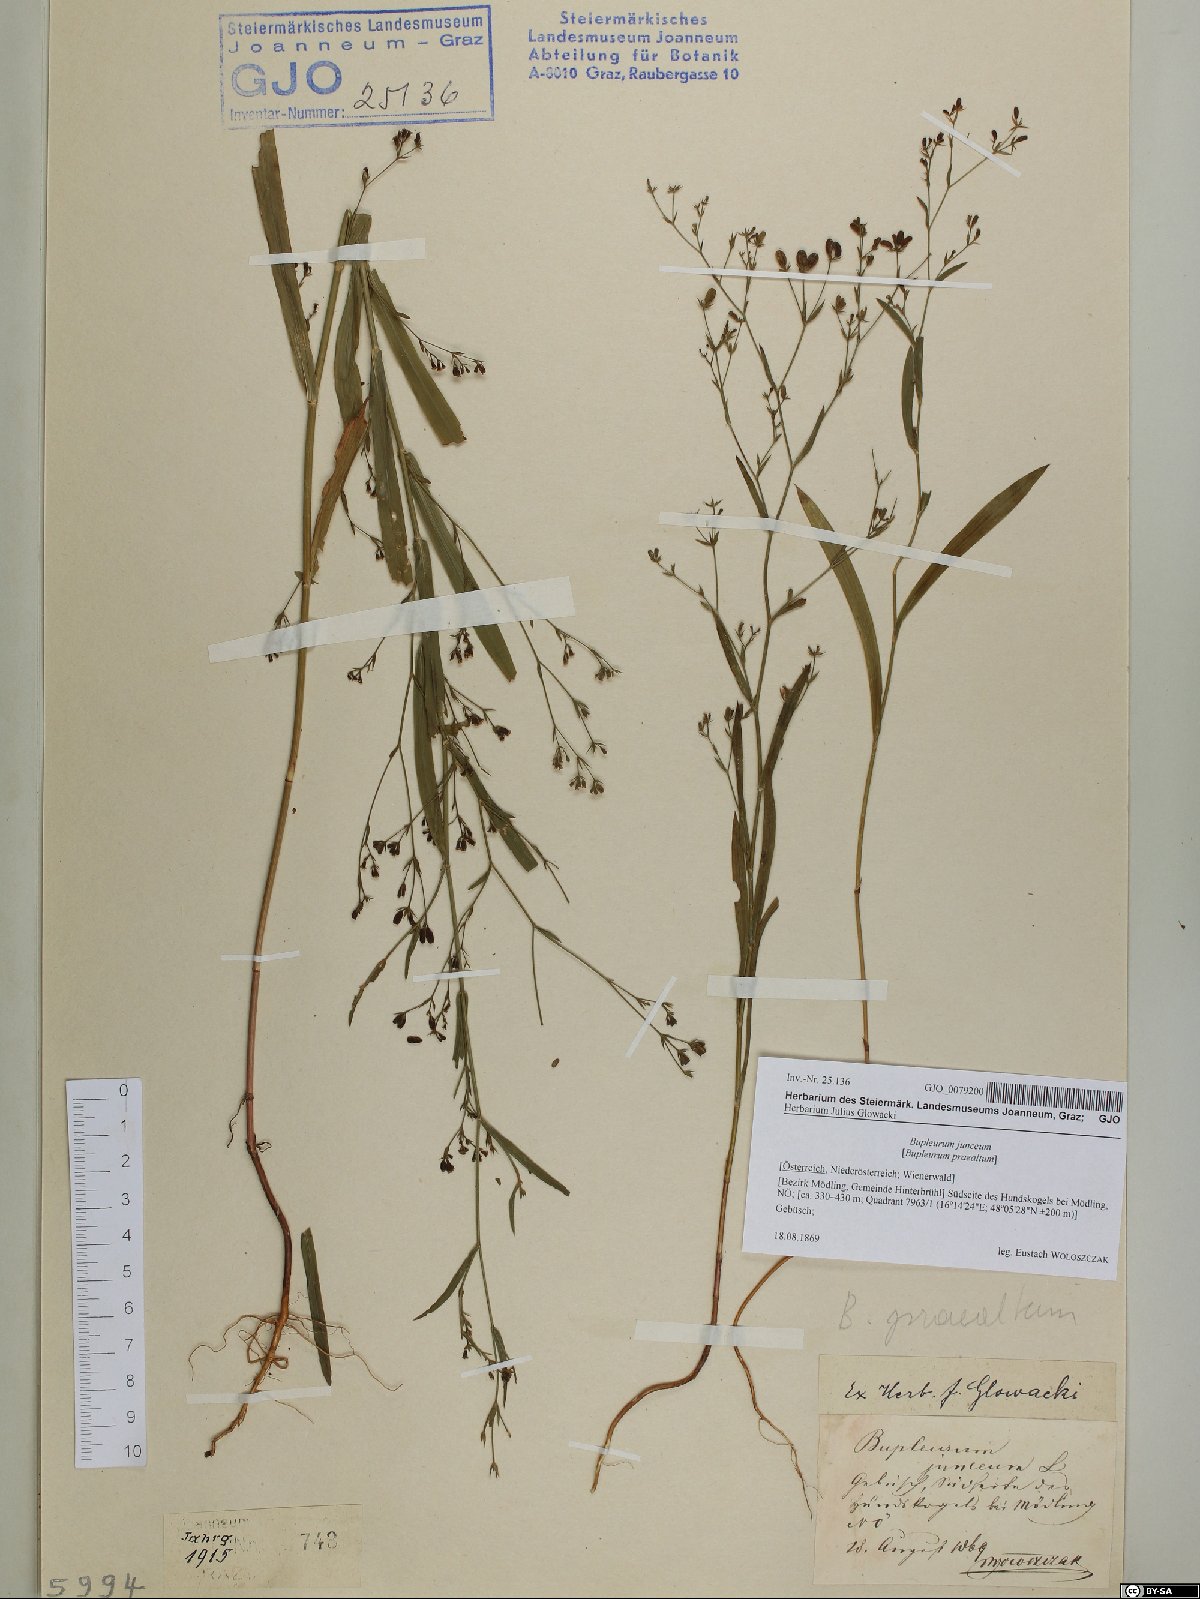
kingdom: Plantae
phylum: Tracheophyta
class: Magnoliopsida
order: Apiales
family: Apiaceae
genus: Bupleurum
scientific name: Bupleurum praealtum
